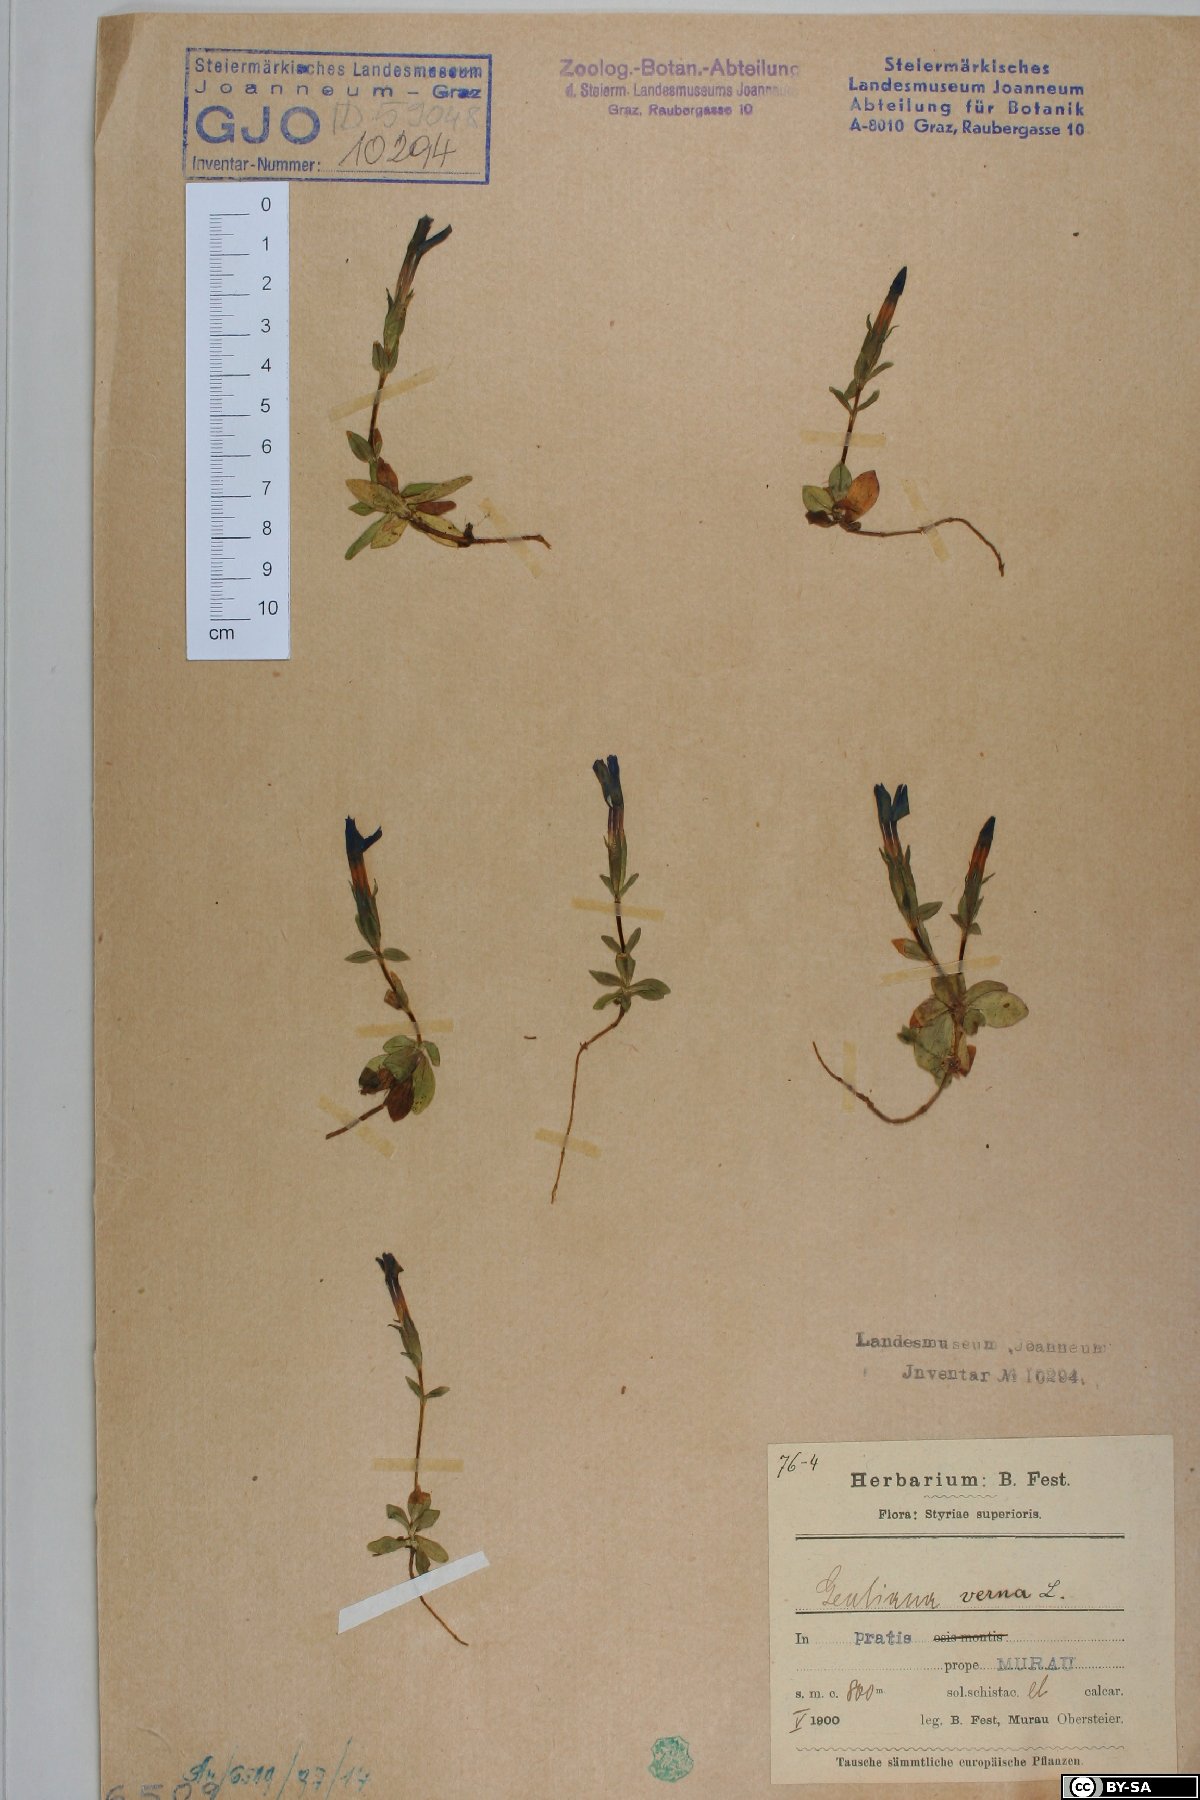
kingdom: Plantae
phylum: Tracheophyta
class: Magnoliopsida
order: Gentianales
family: Gentianaceae
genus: Gentiana
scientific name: Gentiana verna
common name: Spring gentian
